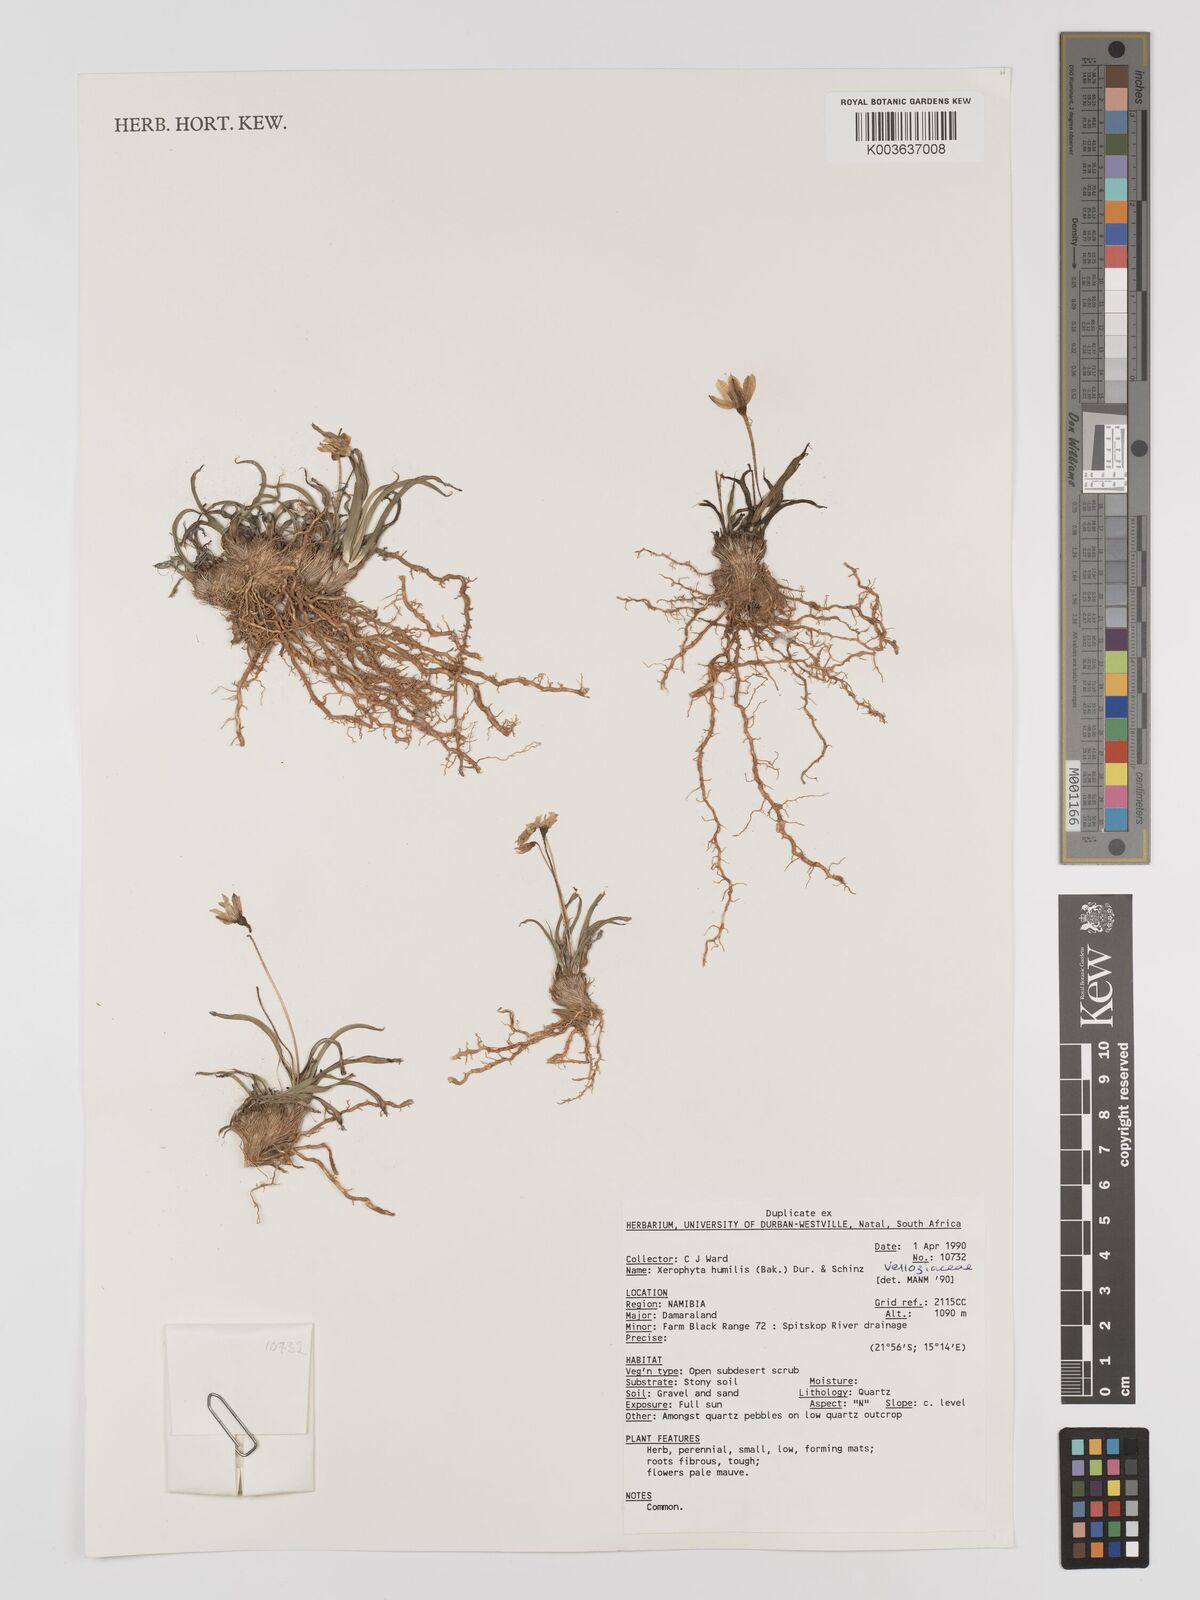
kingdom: Plantae
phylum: Tracheophyta
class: Liliopsida
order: Pandanales
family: Velloziaceae
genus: Xerophyta
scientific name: Xerophyta humilis
